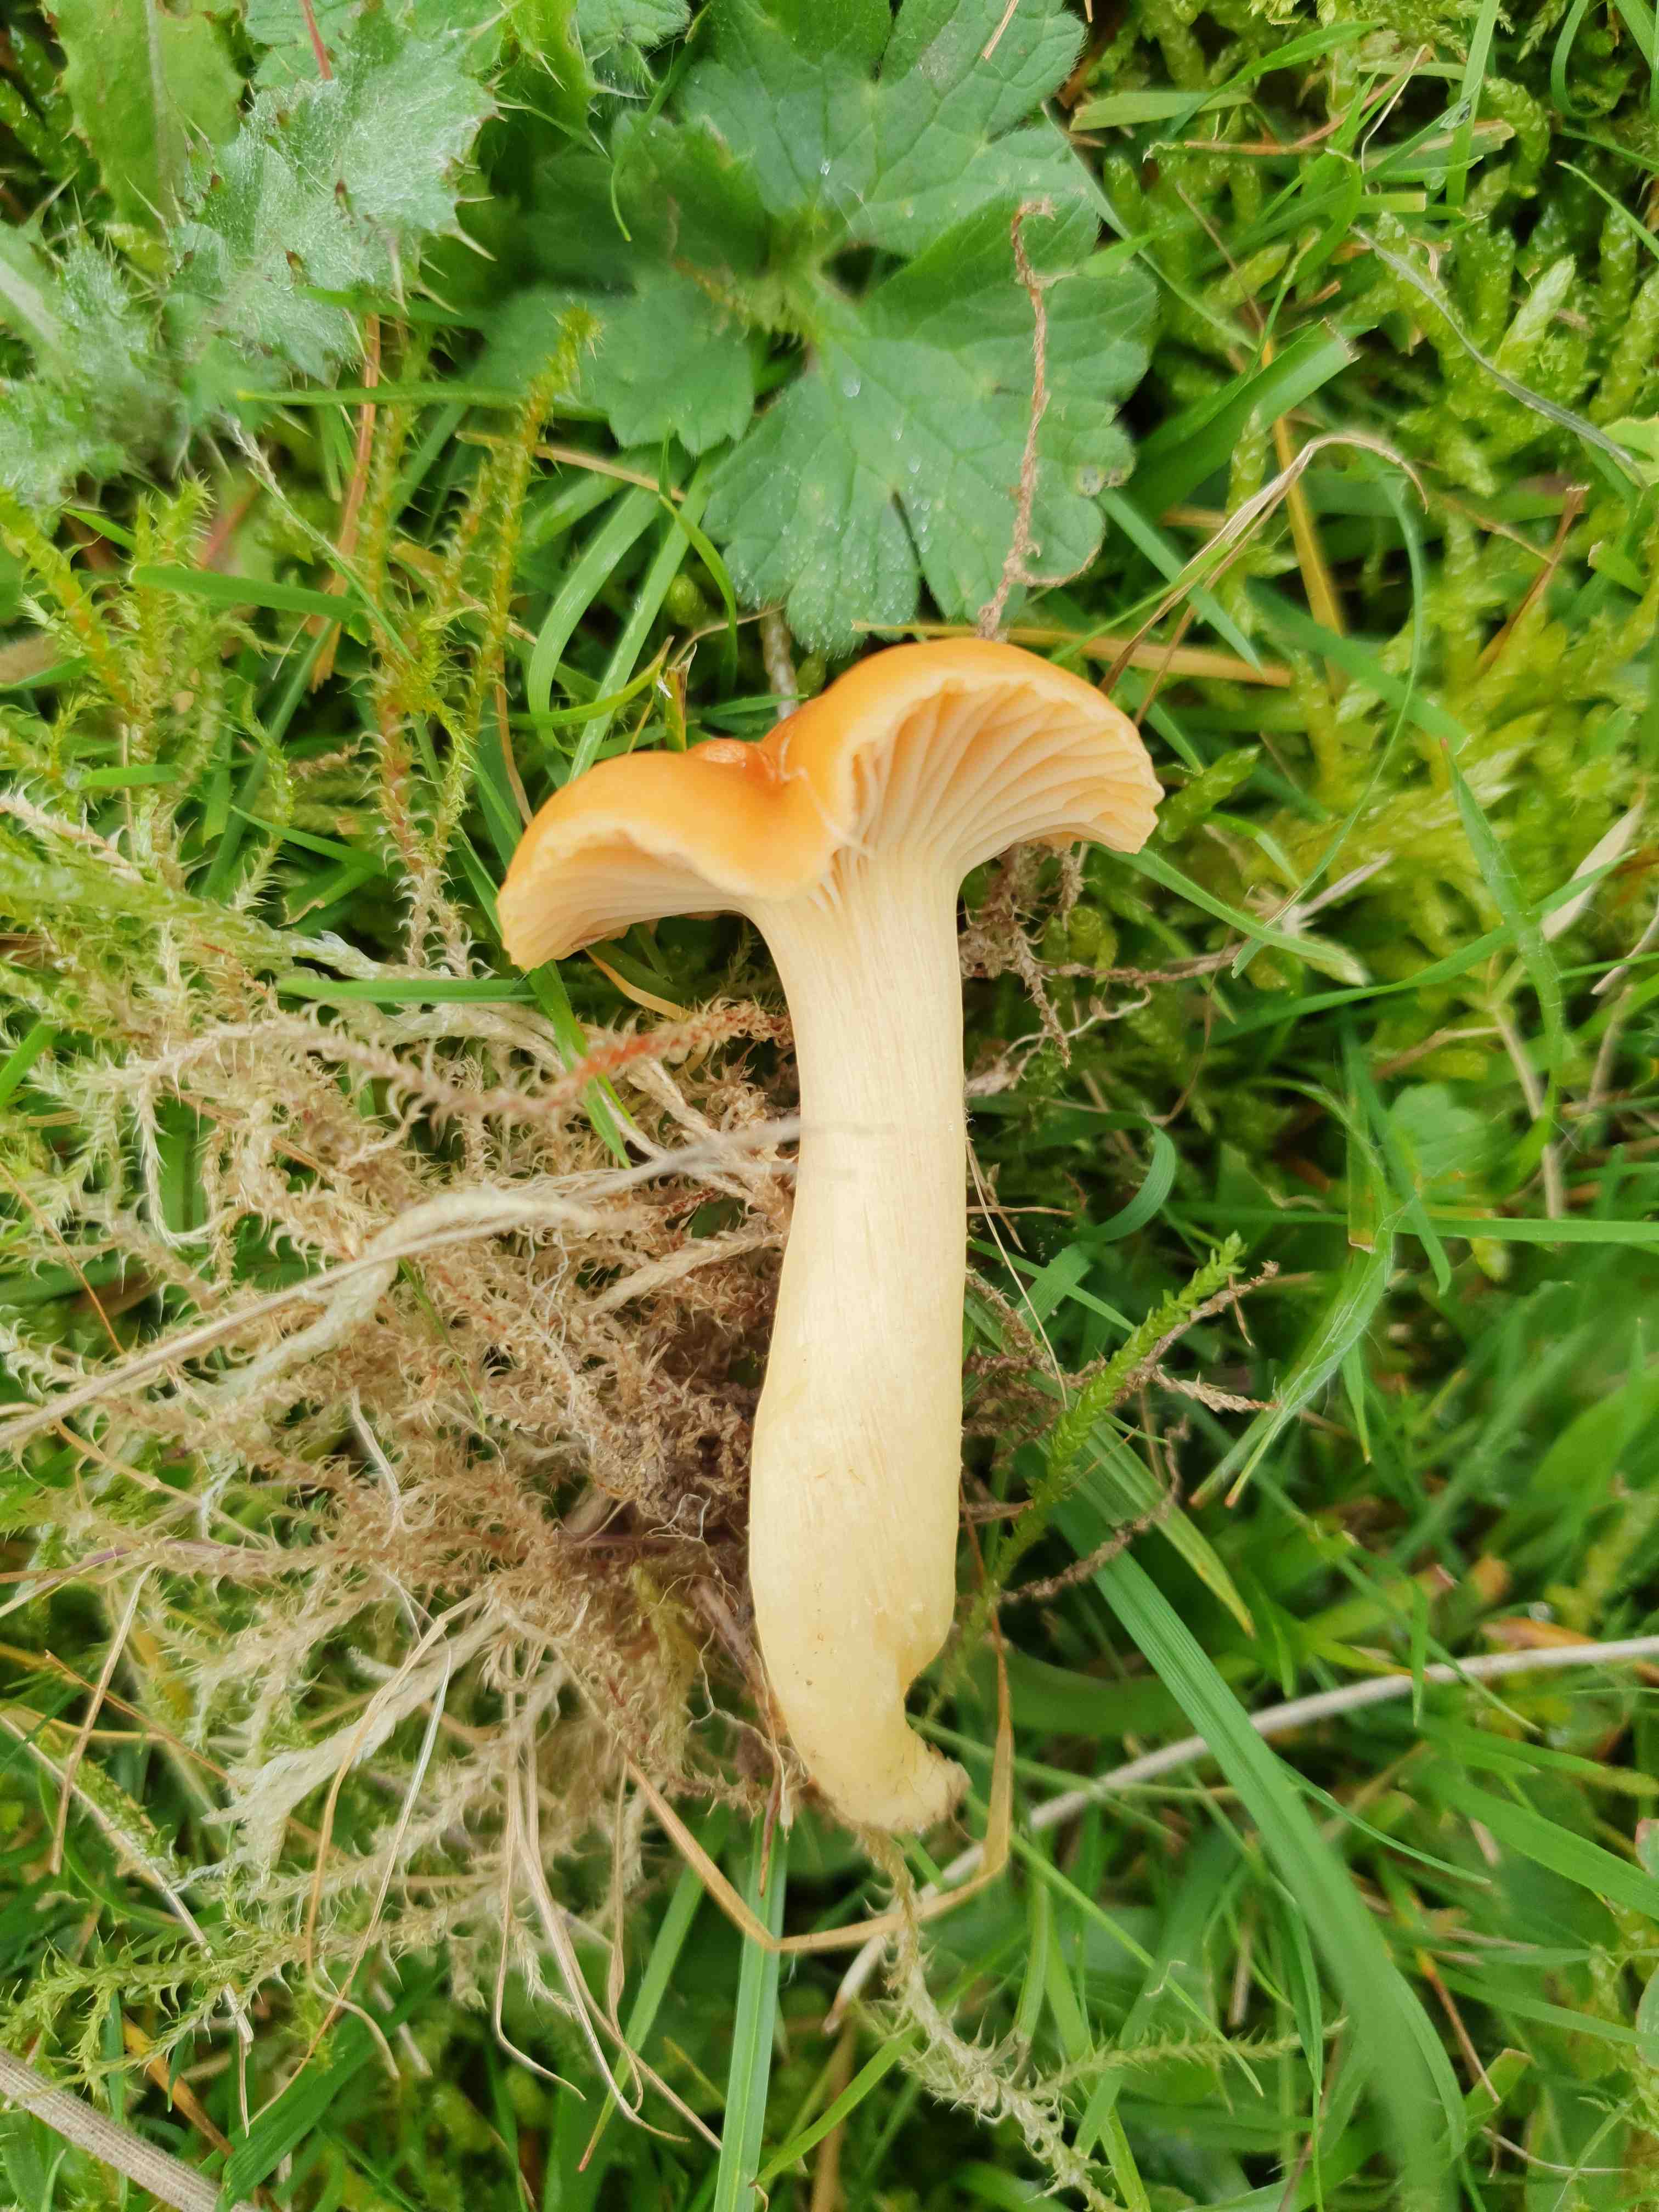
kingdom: Fungi
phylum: Basidiomycota
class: Agaricomycetes
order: Agaricales
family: Hygrophoraceae
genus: Cuphophyllus
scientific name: Cuphophyllus pratensis
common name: eng-vokshat
